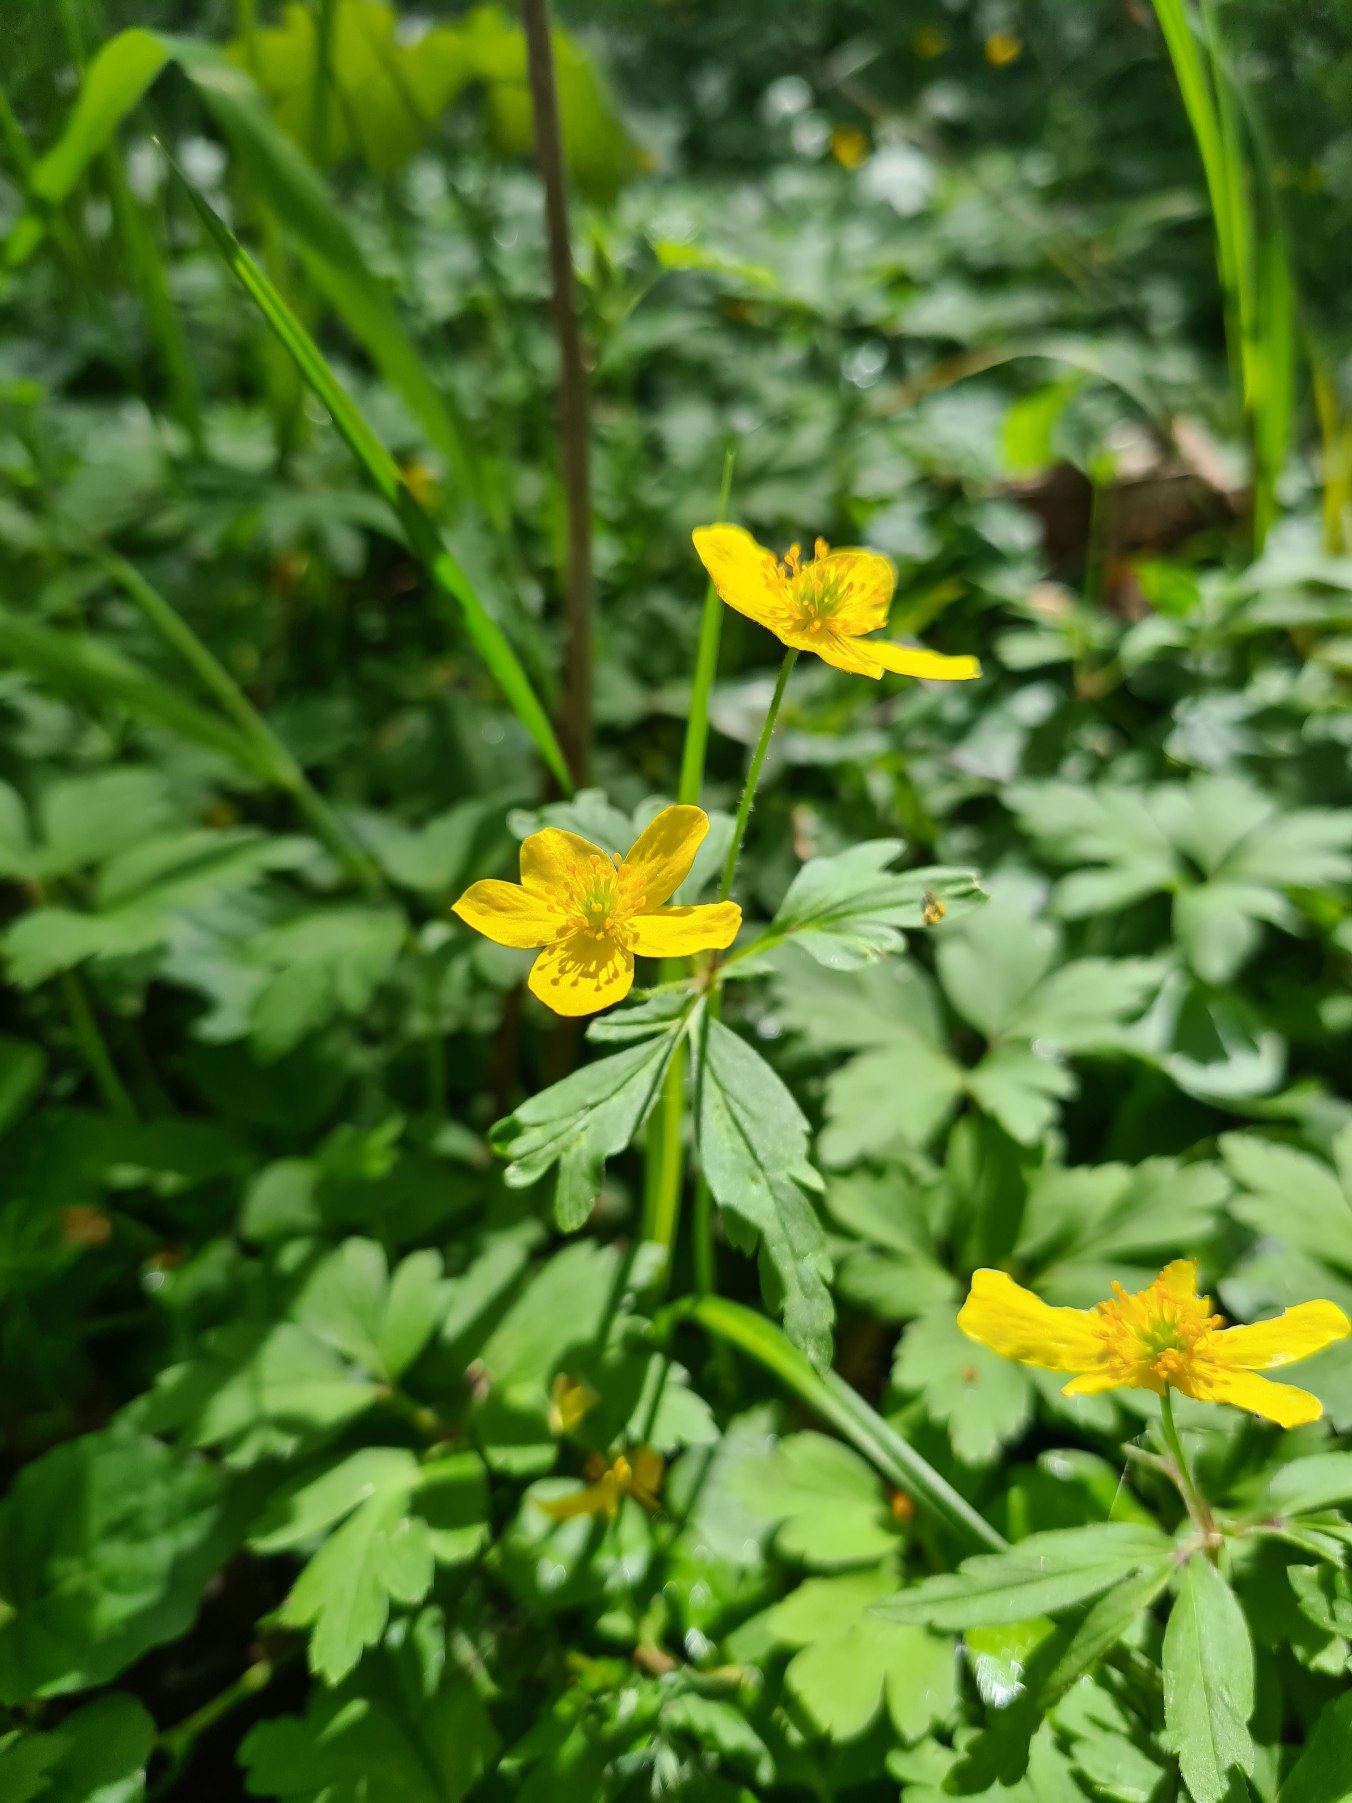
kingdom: Plantae
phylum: Tracheophyta
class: Magnoliopsida
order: Ranunculales
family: Ranunculaceae
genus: Anemone
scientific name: Anemone ranunculoides
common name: Gul anemone
